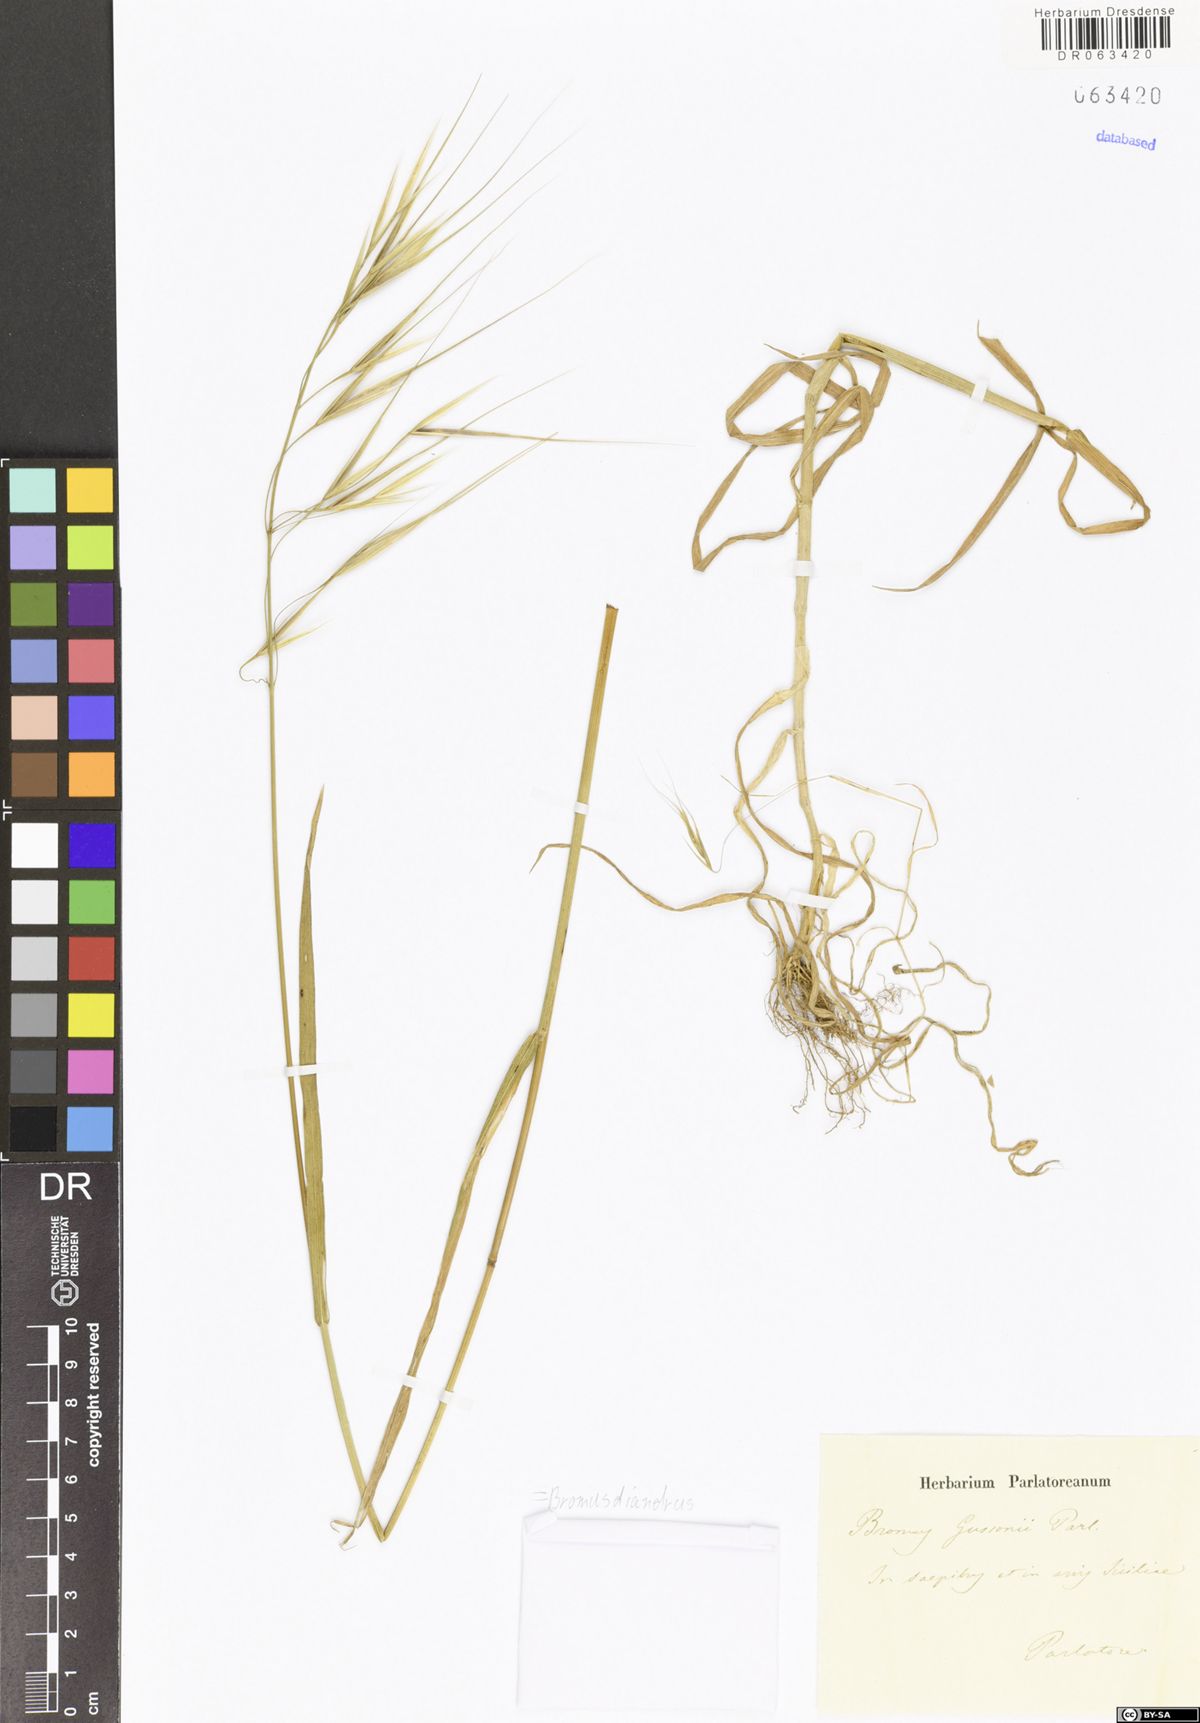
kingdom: Plantae
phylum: Tracheophyta
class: Liliopsida
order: Poales
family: Poaceae
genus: Bromus
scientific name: Bromus diandrus
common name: Ripgut brome
